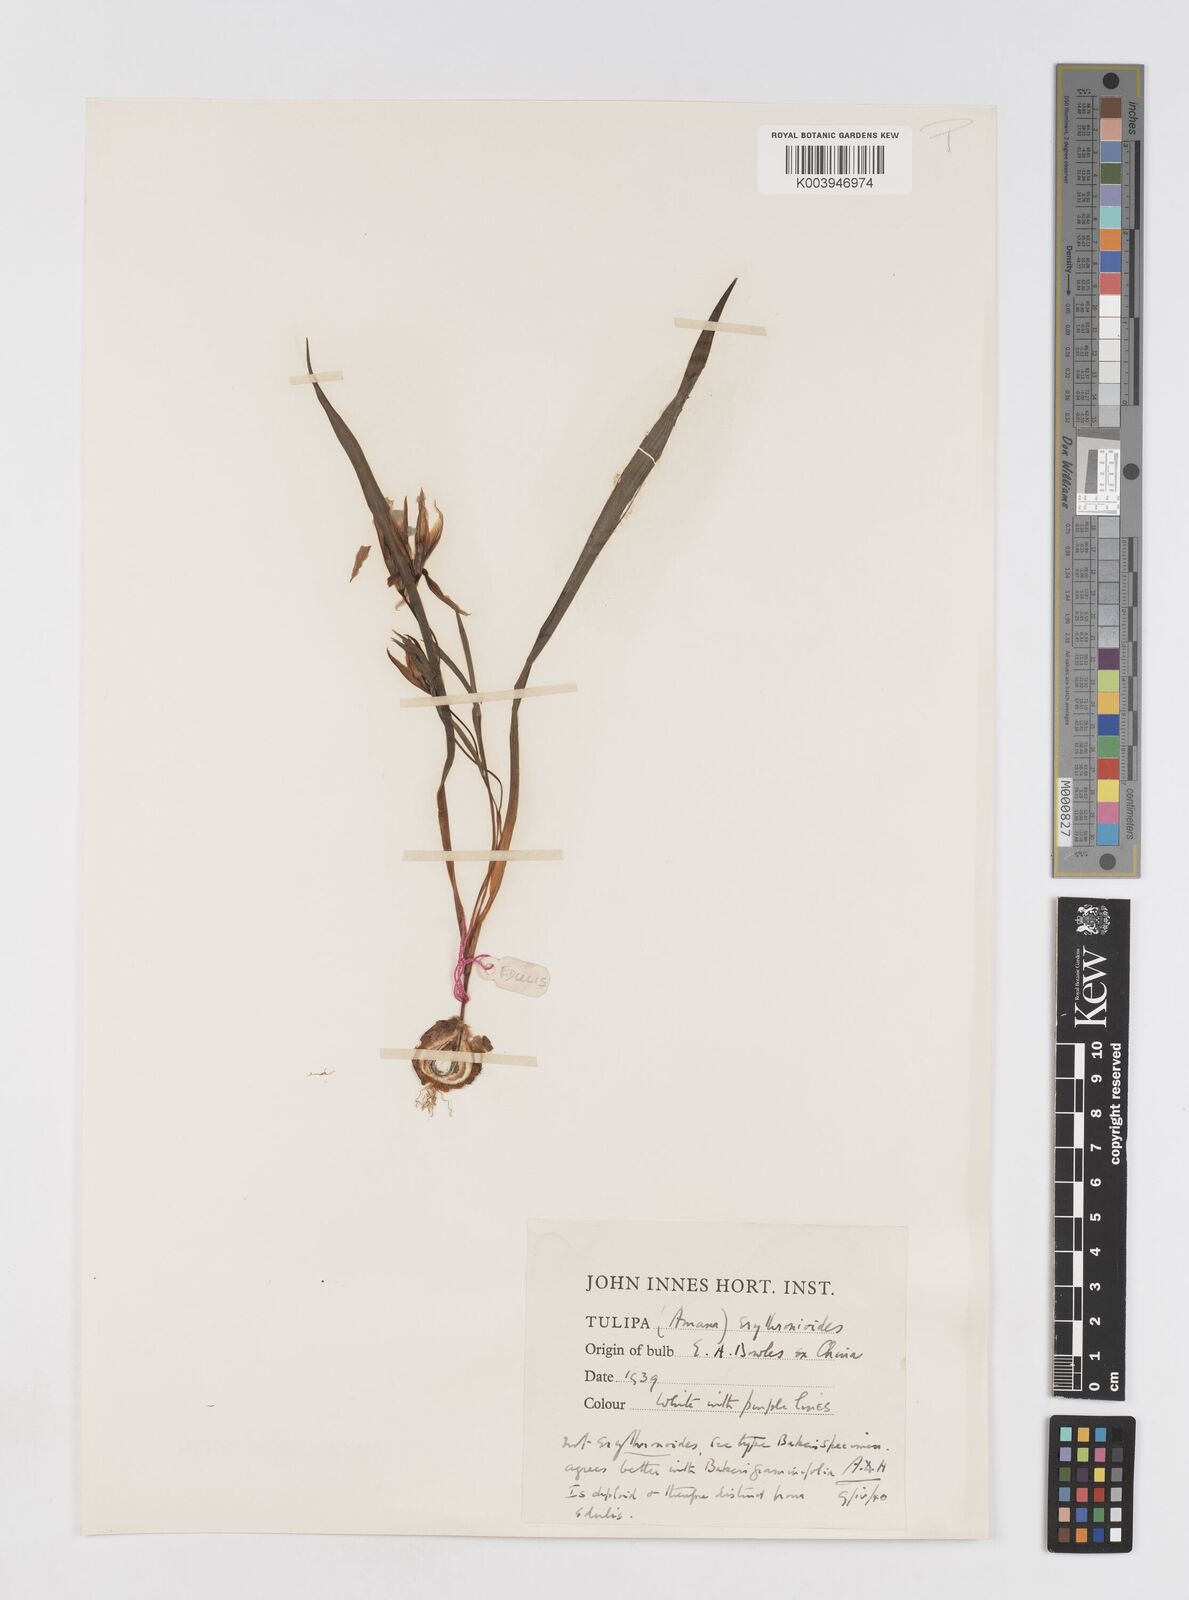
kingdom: Plantae
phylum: Tracheophyta
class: Liliopsida
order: Liliales
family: Liliaceae
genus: Amana
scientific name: Amana edulis
